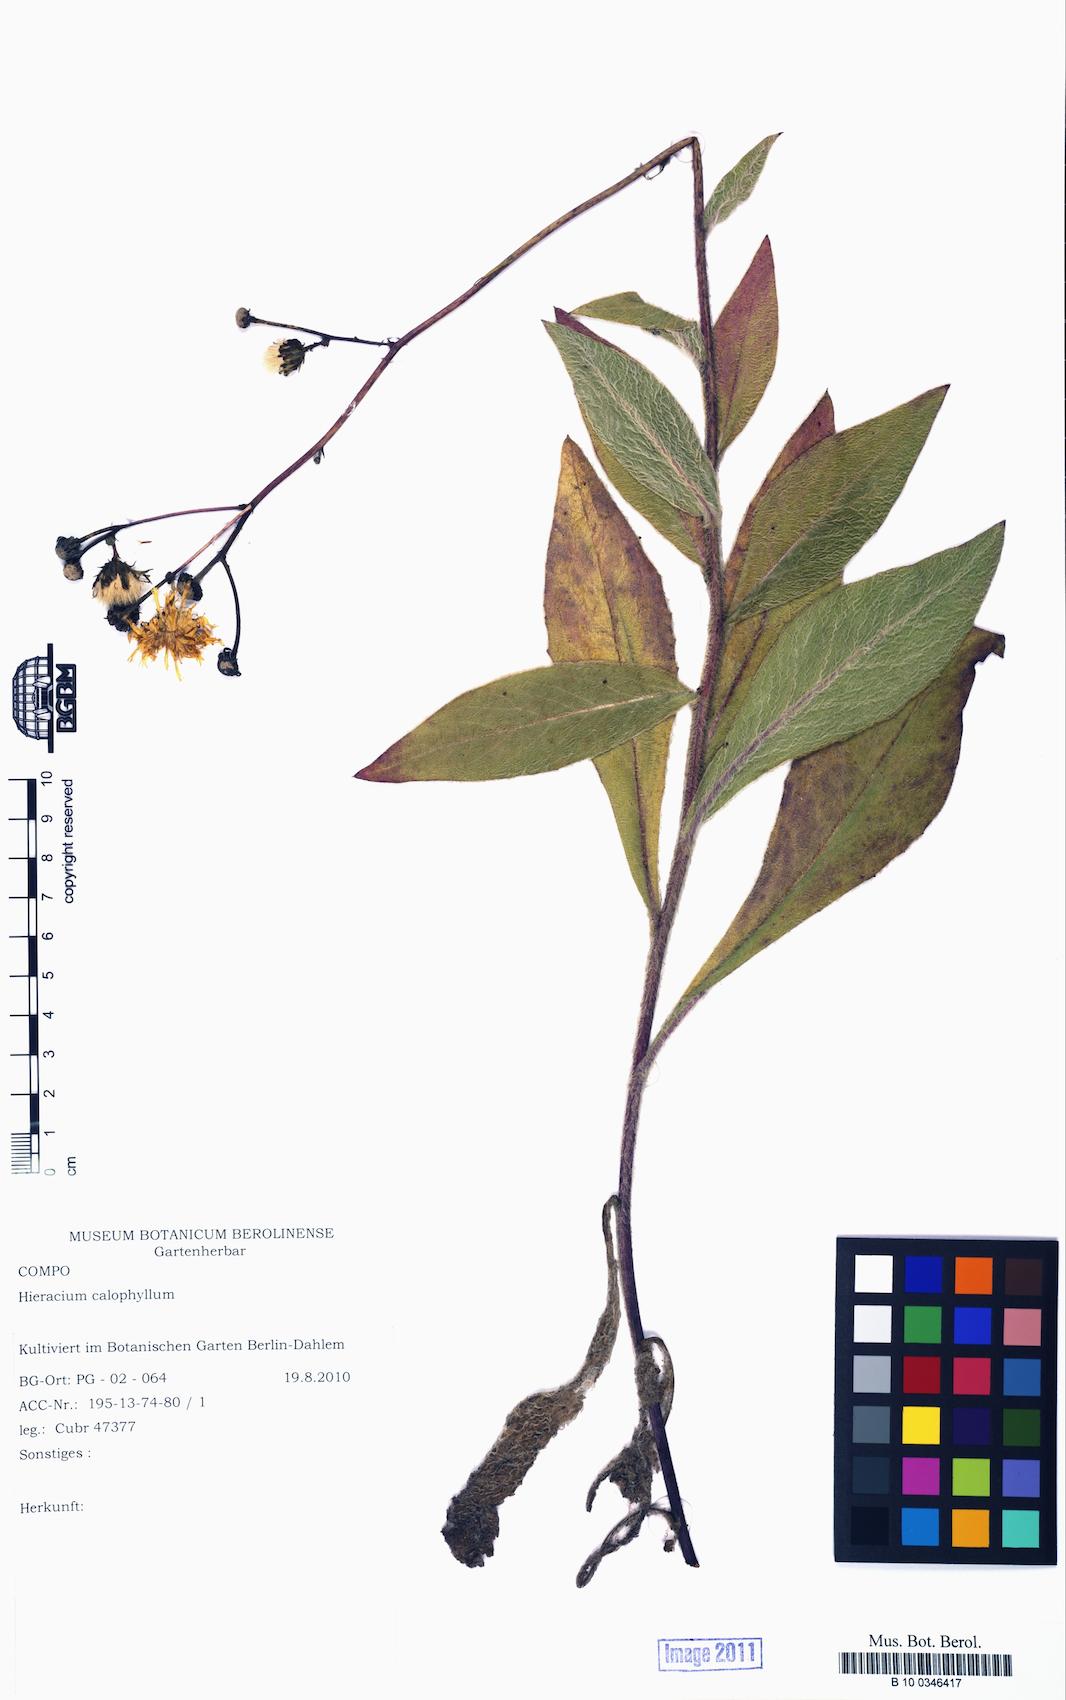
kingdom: Plantae
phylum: Tracheophyta
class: Magnoliopsida
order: Asterales
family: Asteraceae
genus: Hieracium
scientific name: Hieracium calophyllum
